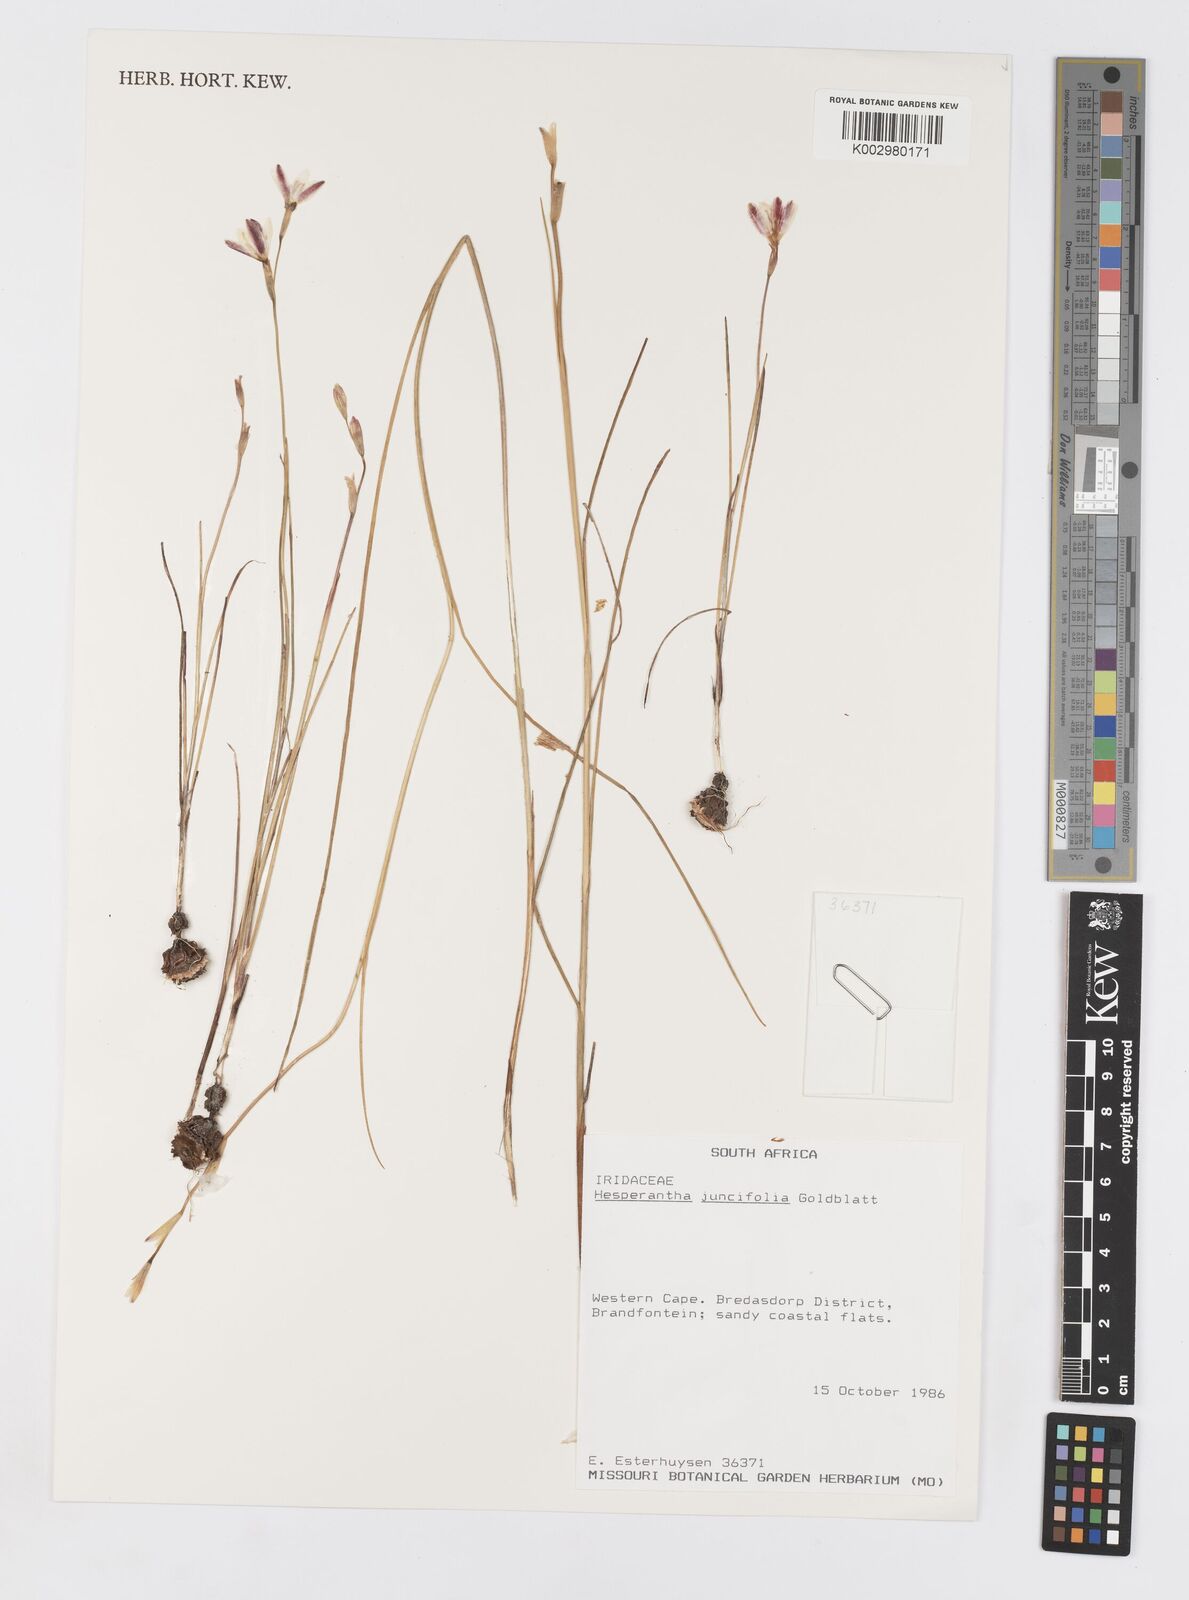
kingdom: Plantae
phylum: Tracheophyta
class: Liliopsida
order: Asparagales
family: Iridaceae
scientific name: Iridaceae
